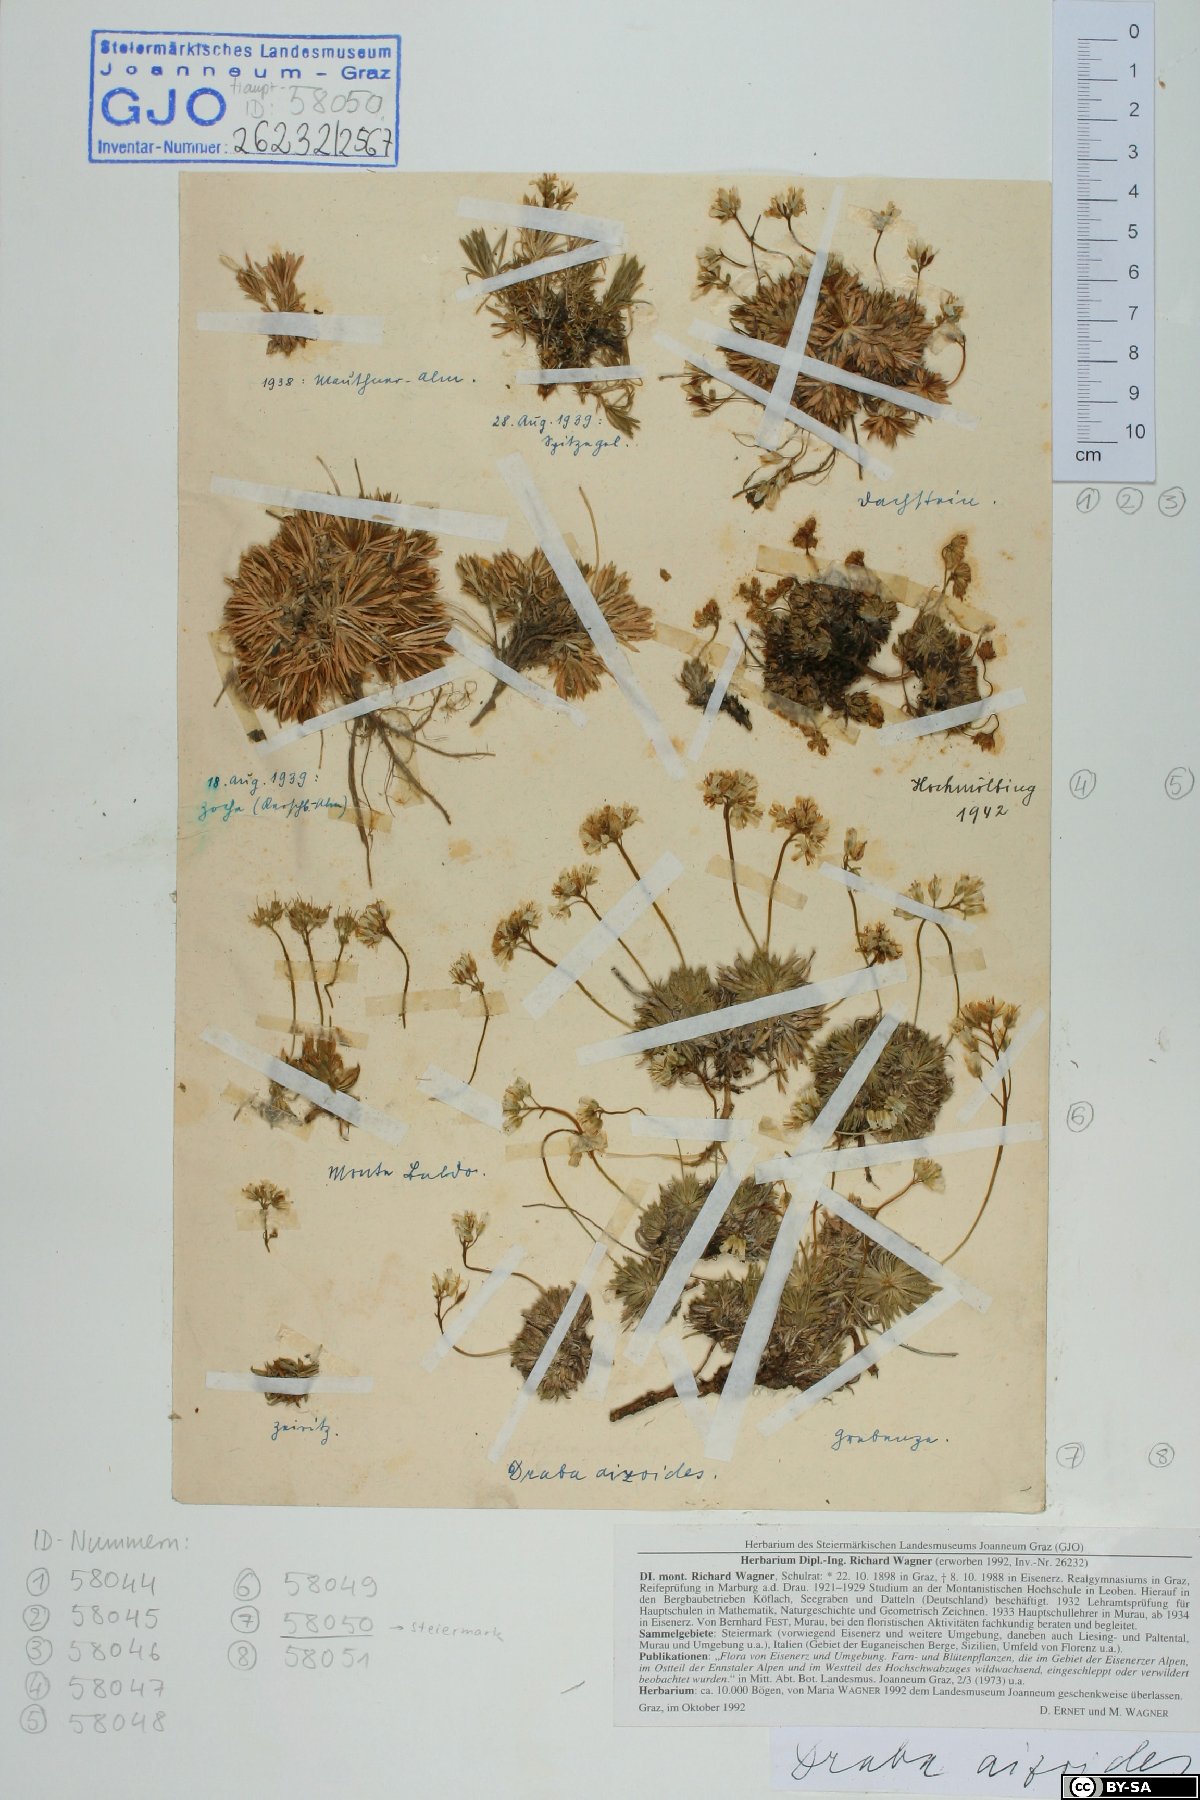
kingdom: Plantae
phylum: Tracheophyta
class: Magnoliopsida
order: Brassicales
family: Brassicaceae
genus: Draba
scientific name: Draba aizoides
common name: Yellow whitlowgrass
